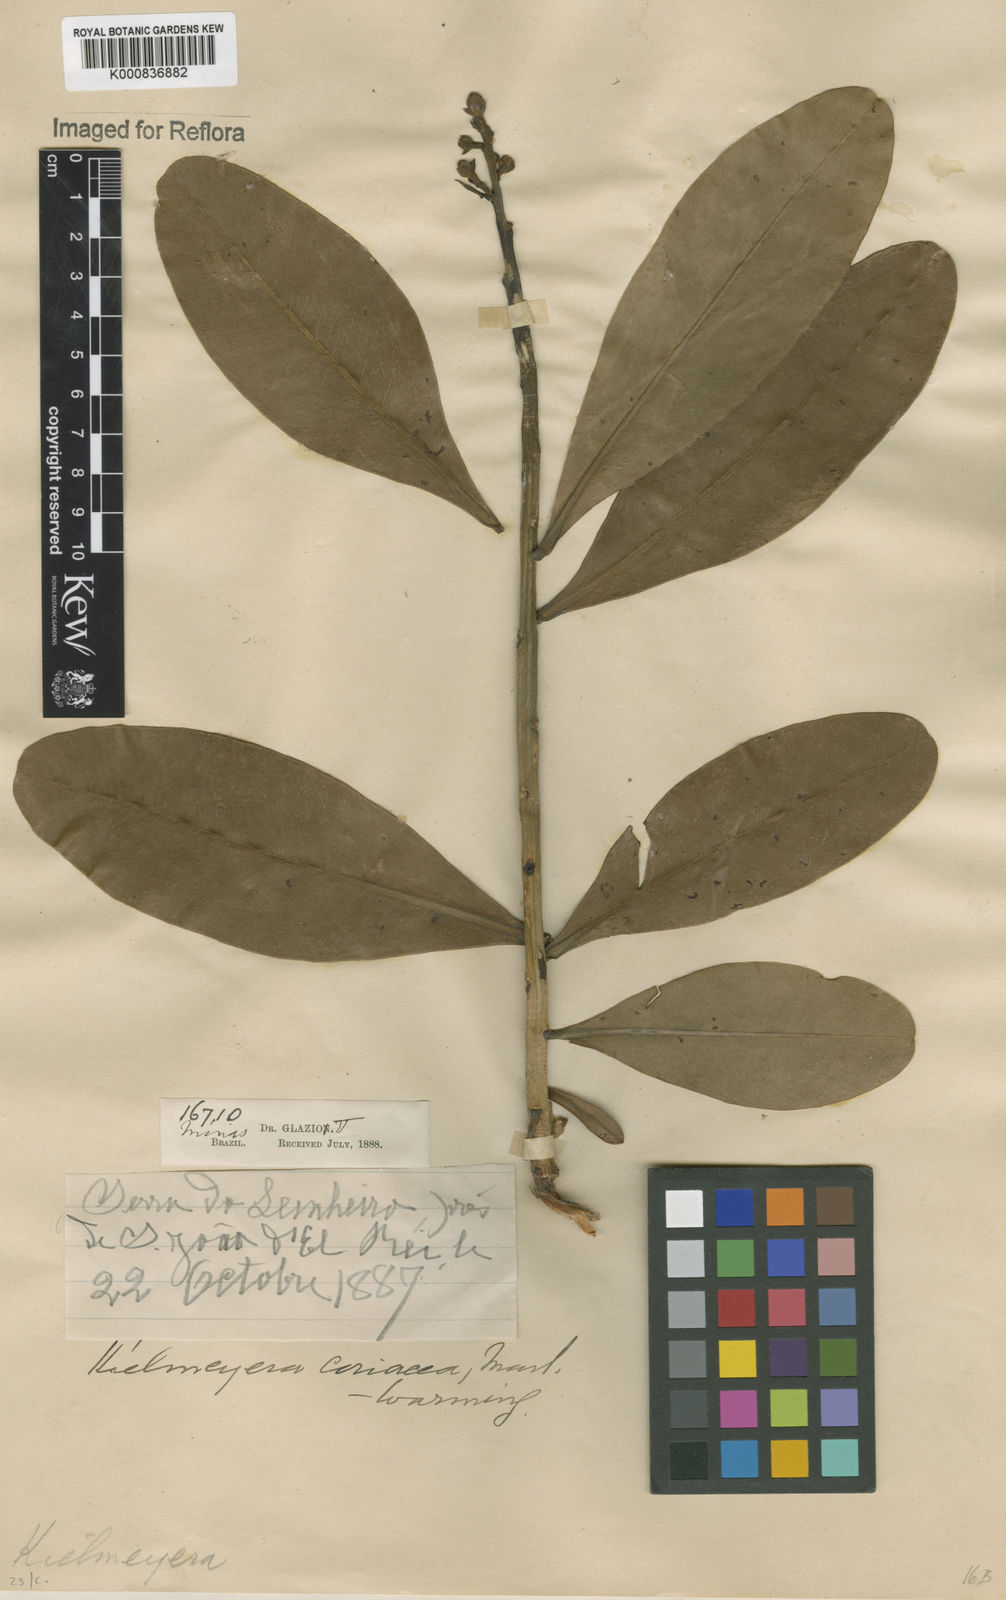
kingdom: Plantae
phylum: Tracheophyta
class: Magnoliopsida
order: Malpighiales
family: Calophyllaceae
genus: Kielmeyera
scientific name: Kielmeyera coriacea
